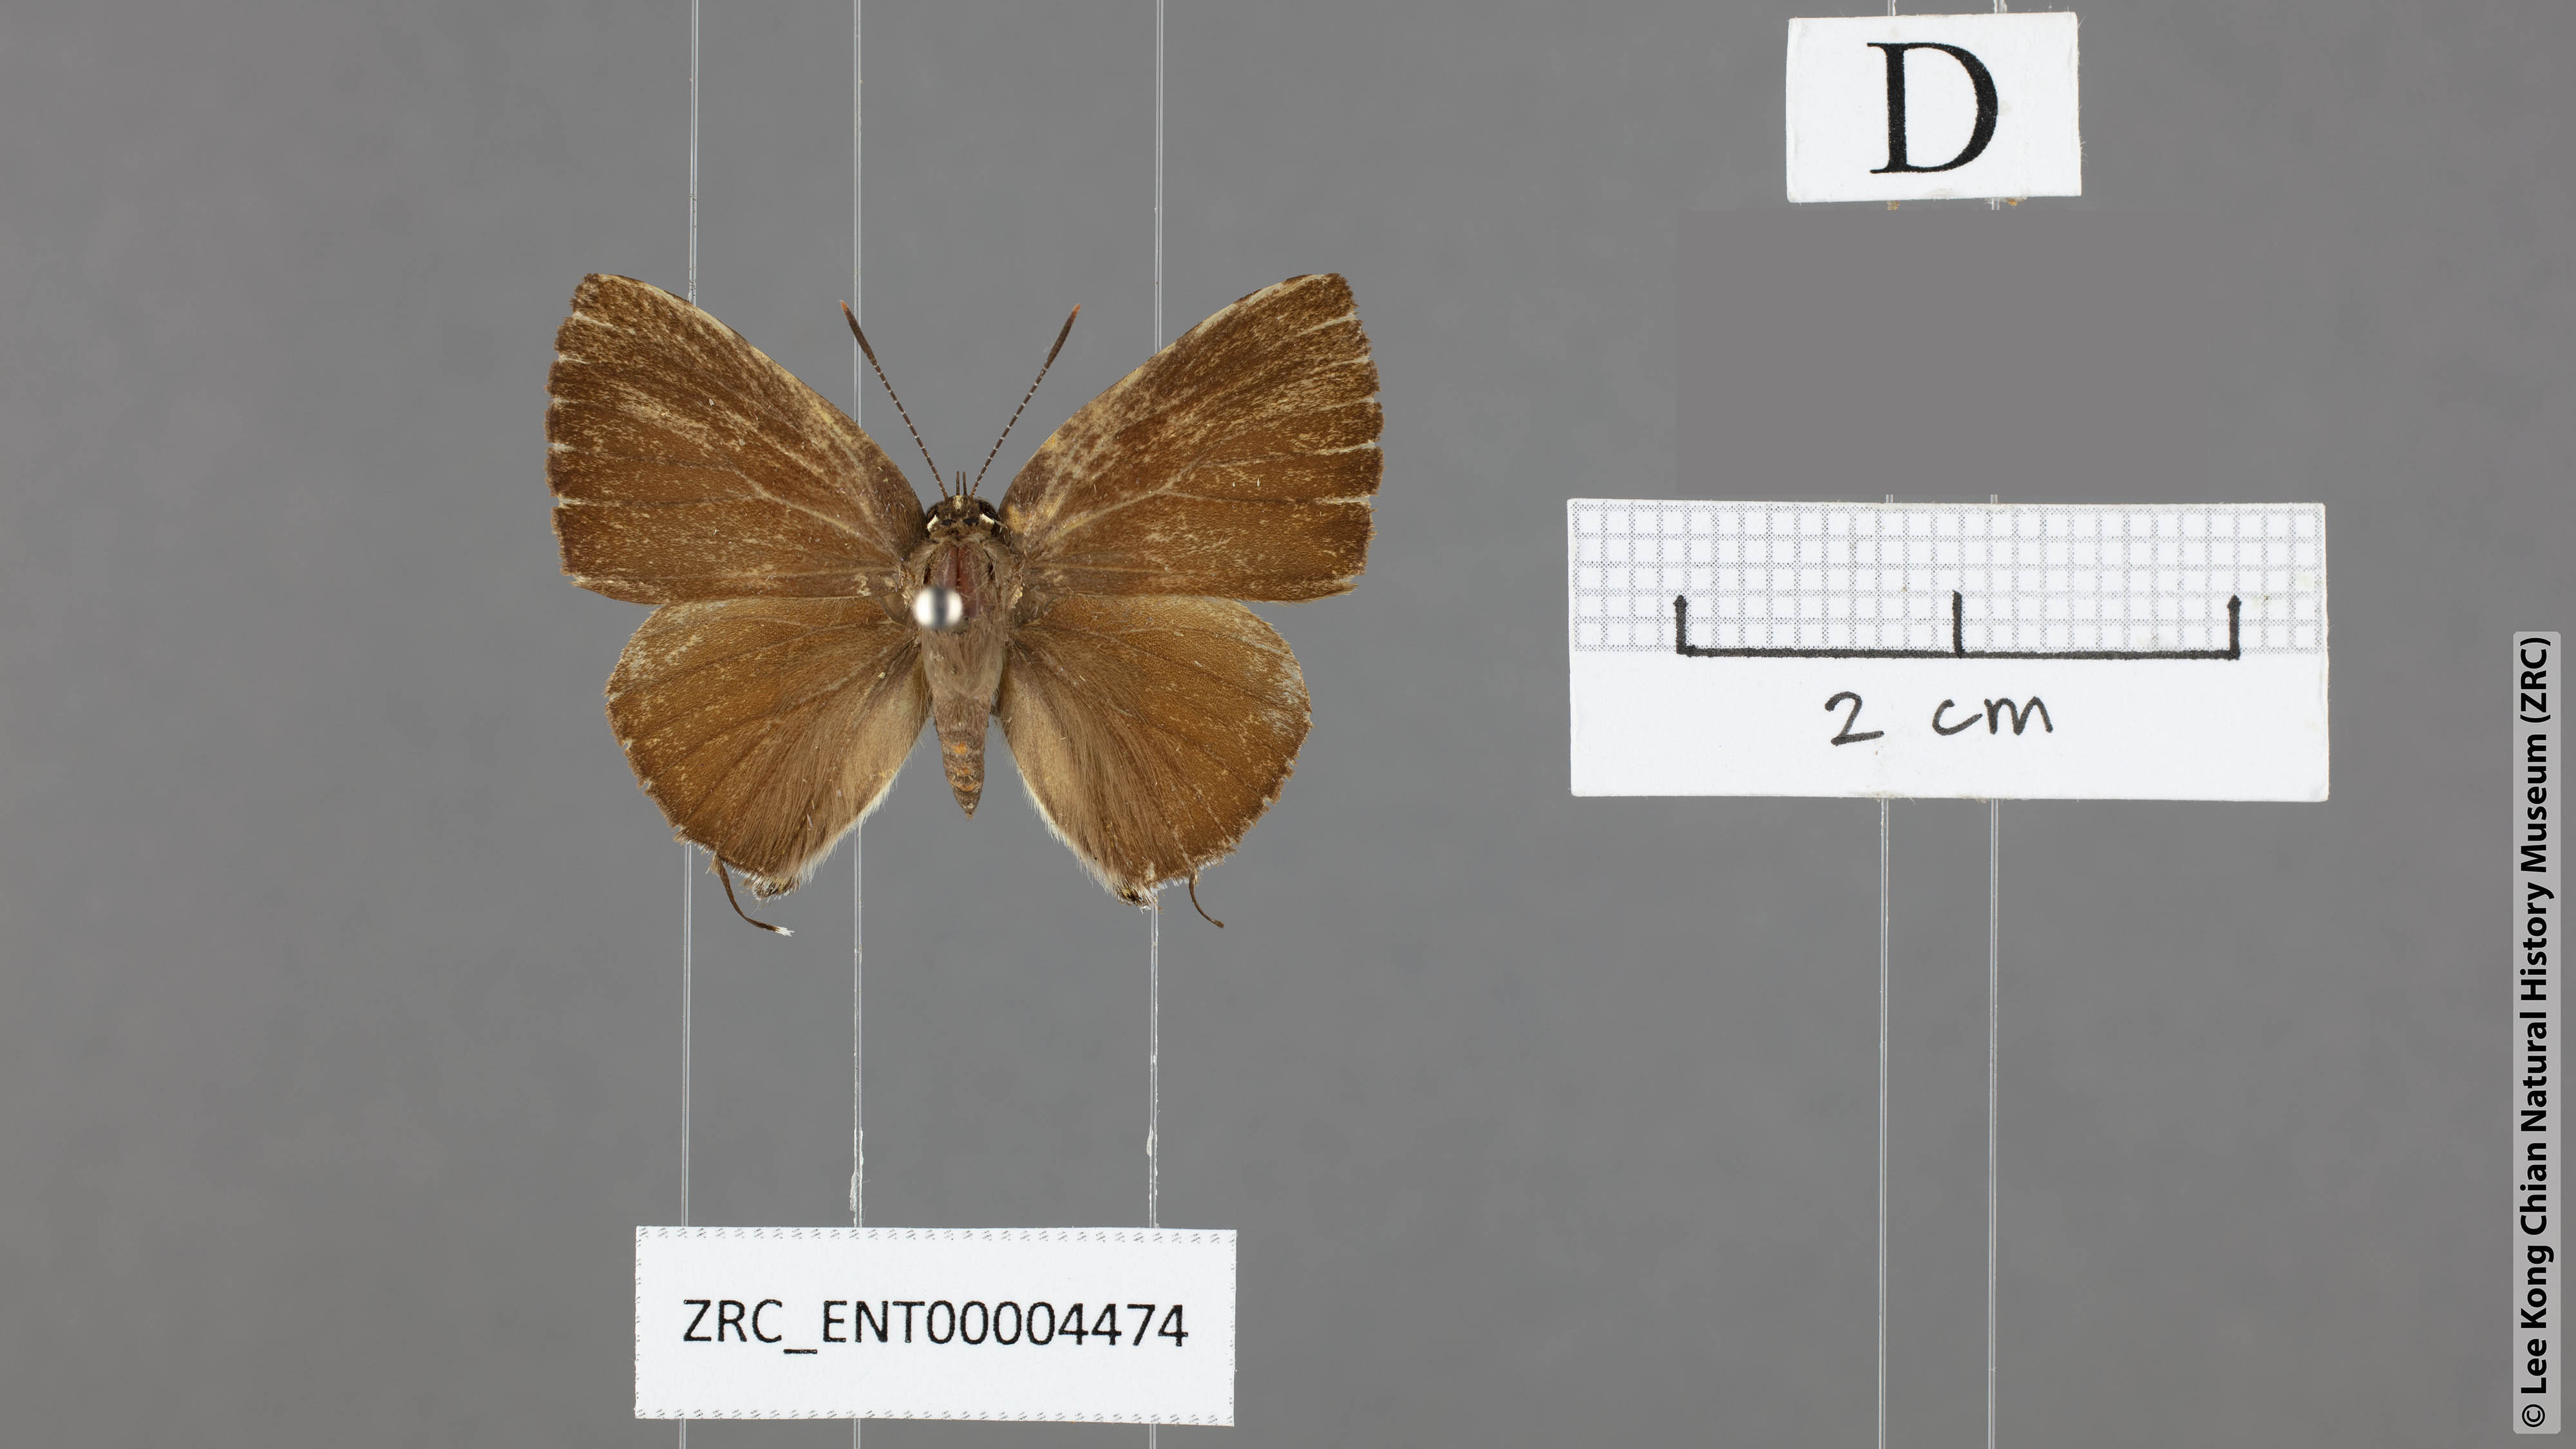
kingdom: Animalia
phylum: Arthropoda
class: Insecta
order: Lepidoptera
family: Lycaenidae
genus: Rapala
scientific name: Rapala damona
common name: Malay red flash
